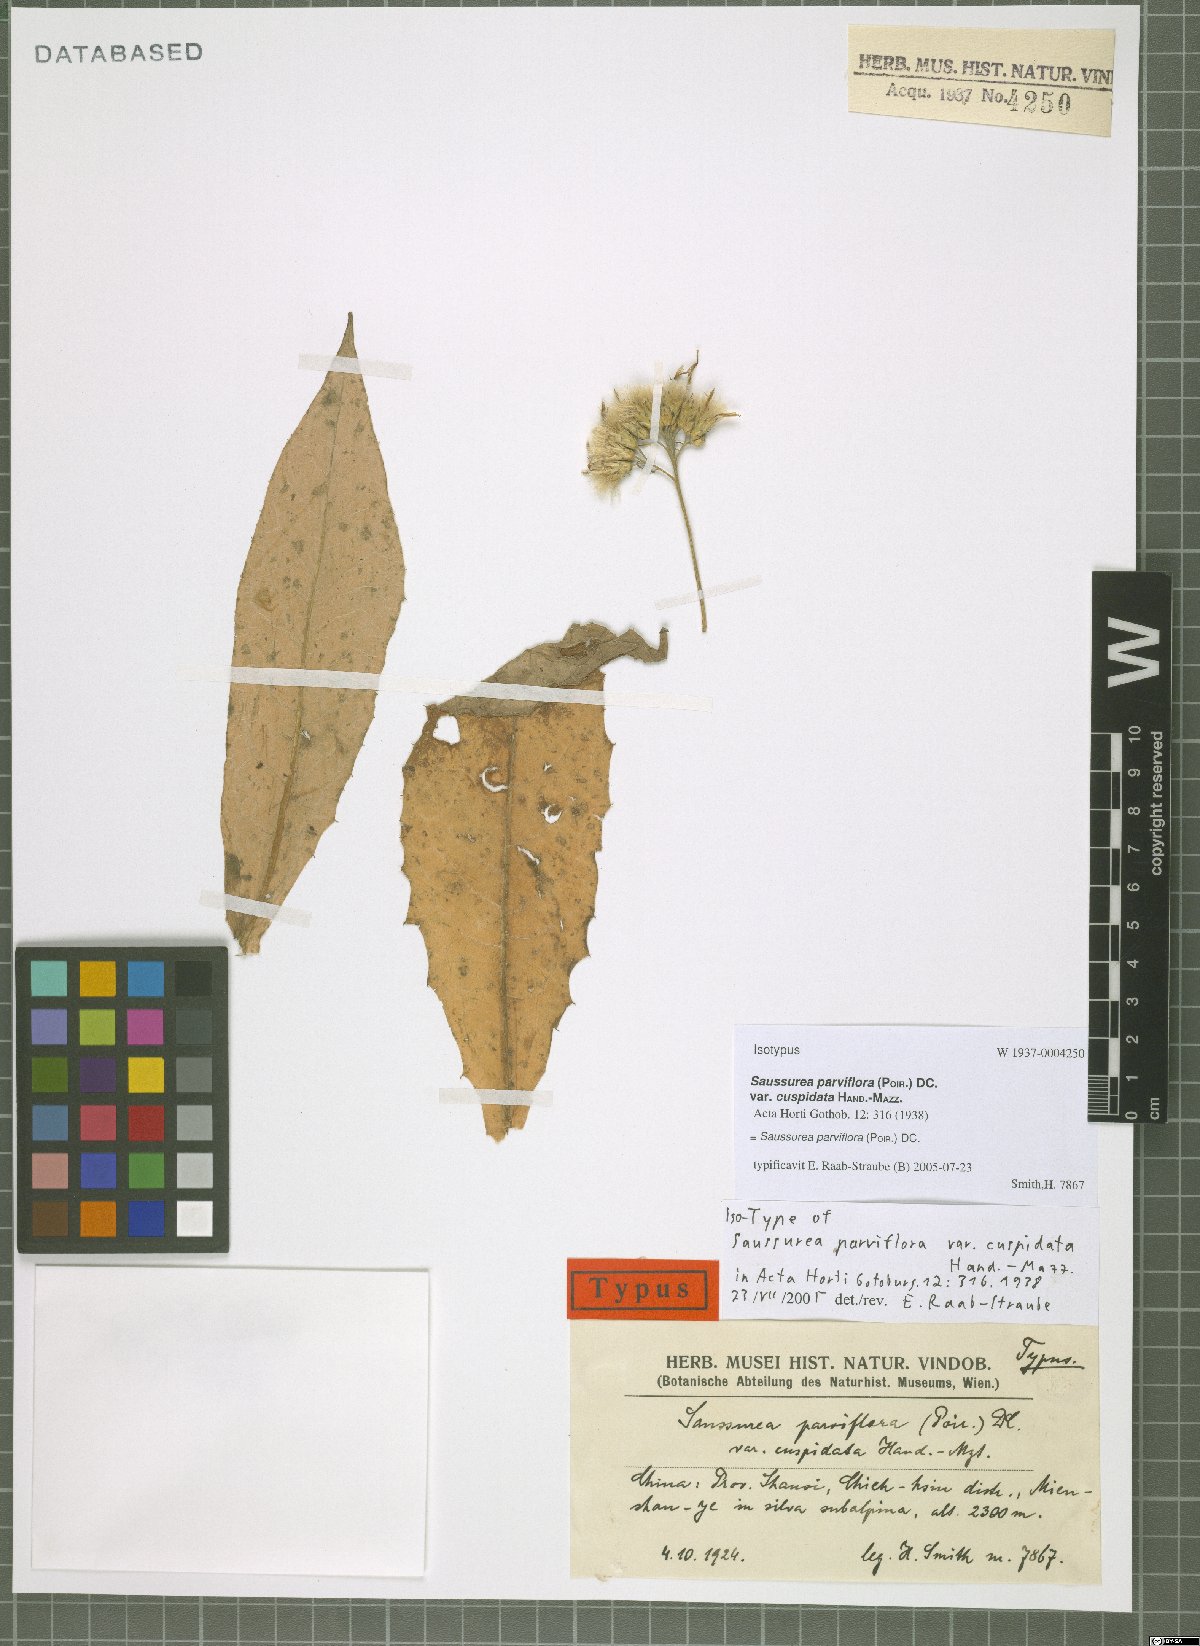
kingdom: Plantae
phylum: Tracheophyta
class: Magnoliopsida
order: Asterales
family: Asteraceae
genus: Saussurea
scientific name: Saussurea parviflora
